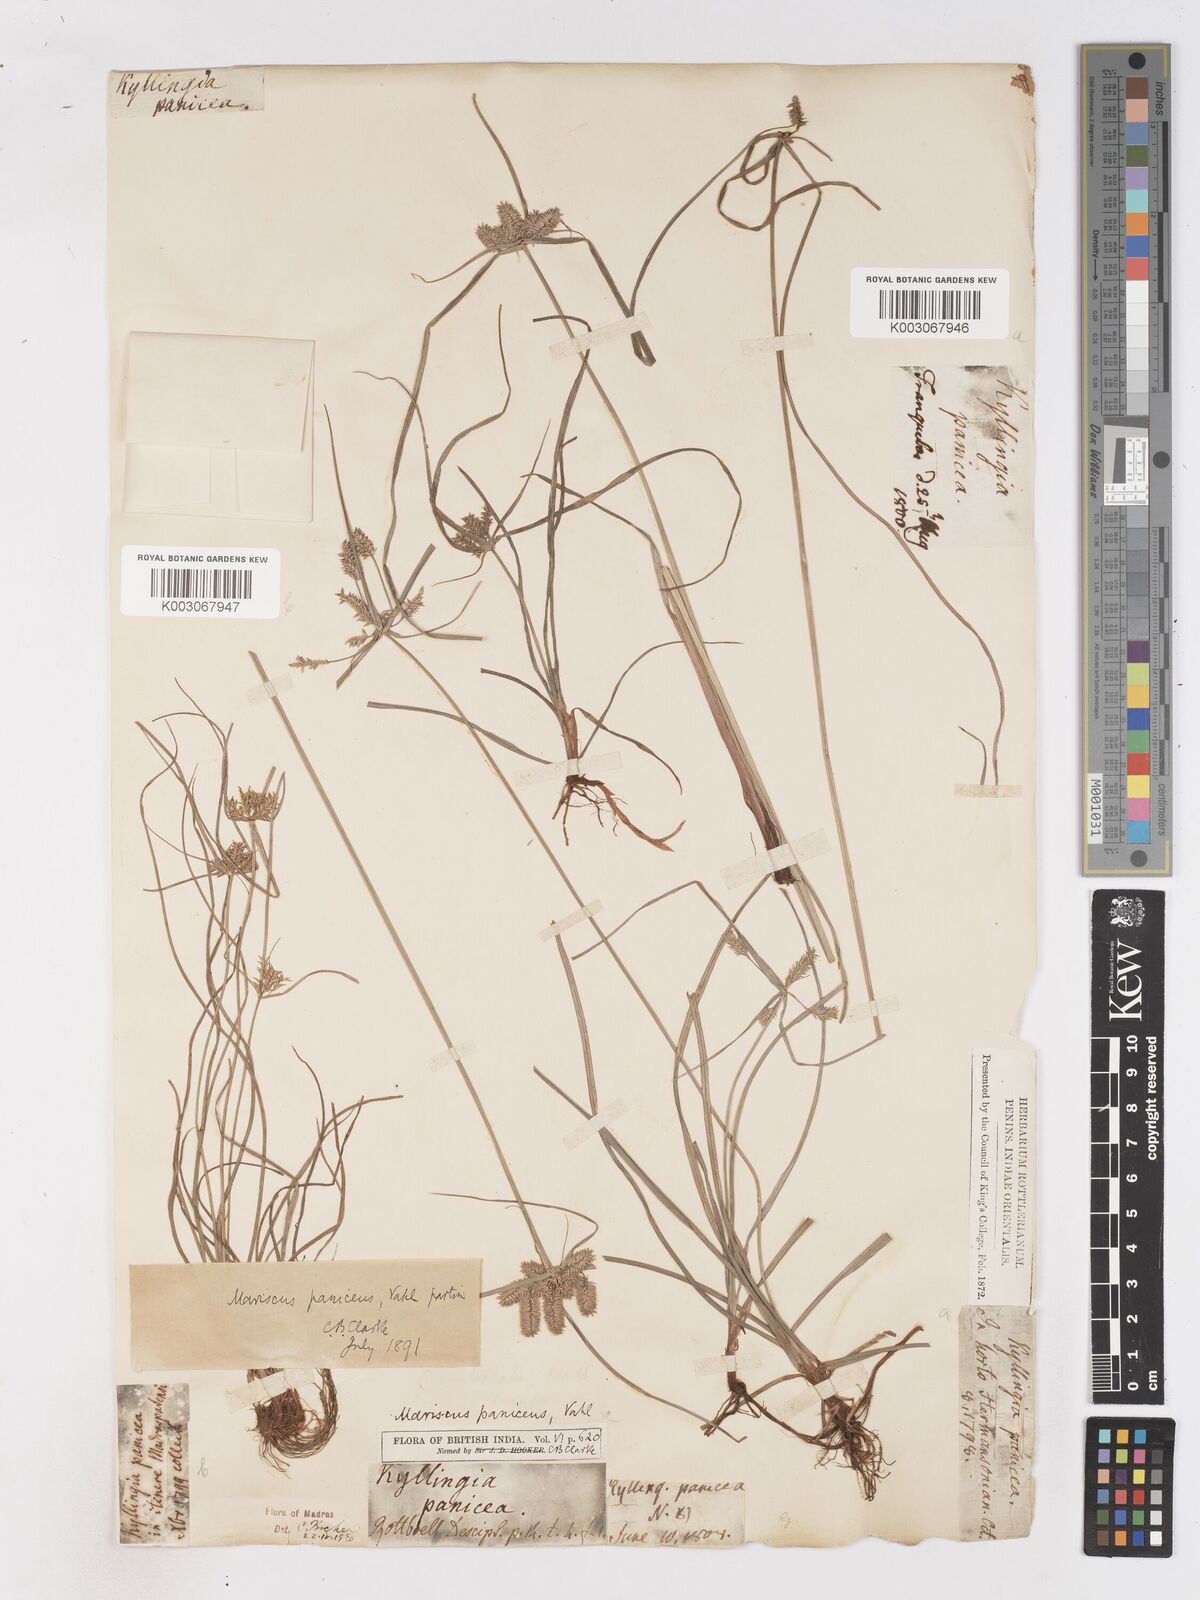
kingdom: Plantae
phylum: Tracheophyta
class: Liliopsida
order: Poales
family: Cyperaceae
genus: Cyperus
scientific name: Cyperus paniceus
